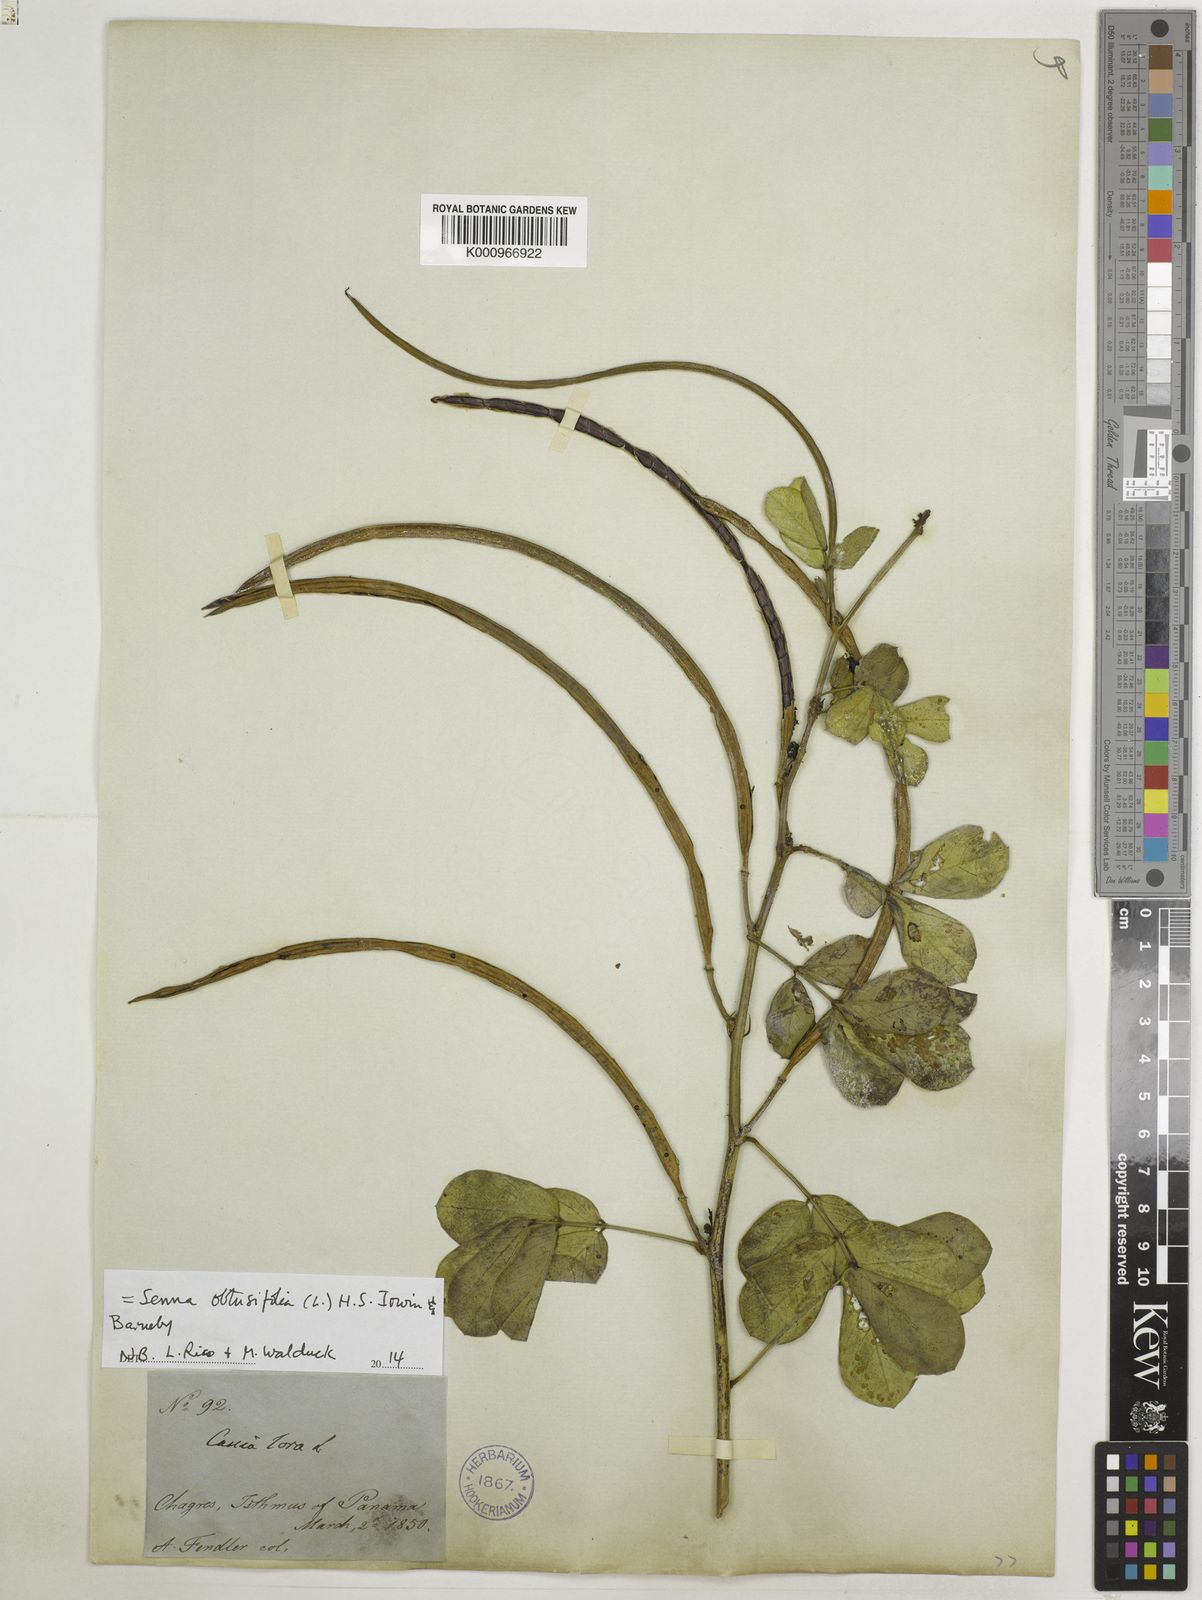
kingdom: Plantae
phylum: Tracheophyta
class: Magnoliopsida
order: Fabales
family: Fabaceae
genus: Senna
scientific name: Senna obtusifolia
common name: Java-bean
